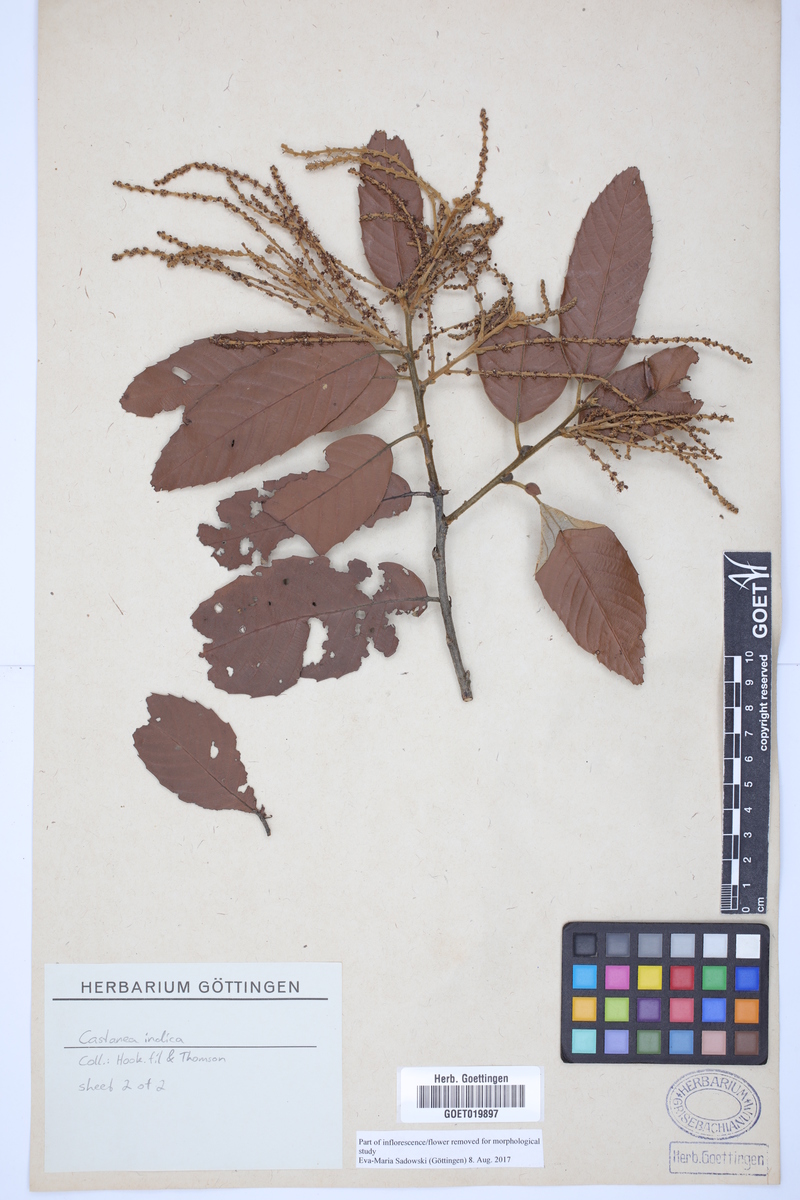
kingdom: Plantae
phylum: Tracheophyta
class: Magnoliopsida
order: Fagales
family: Fagaceae
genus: Castanopsis
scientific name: Castanopsis indica
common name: Indian-chestnut
